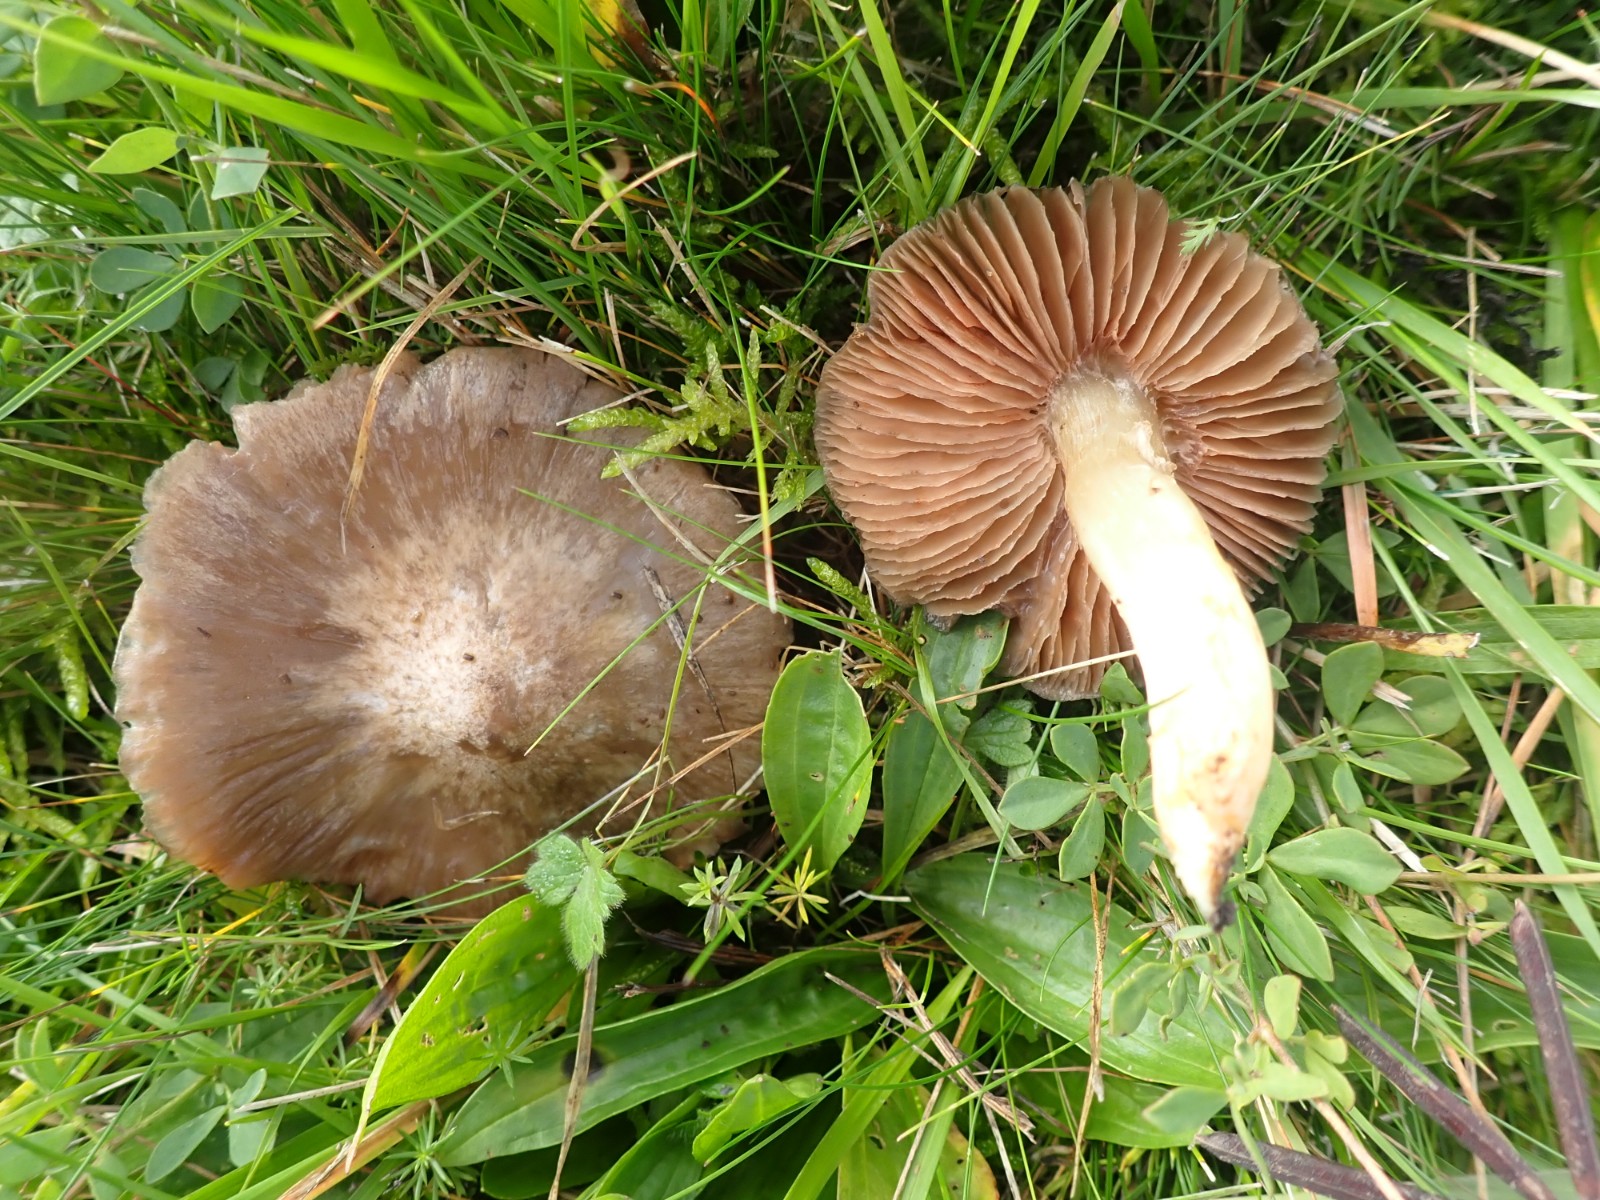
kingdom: Fungi
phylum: Basidiomycota
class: Agaricomycetes
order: Agaricales
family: Entolomataceae
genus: Entoloma
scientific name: Entoloma prunuloides
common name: mel-rødblad
